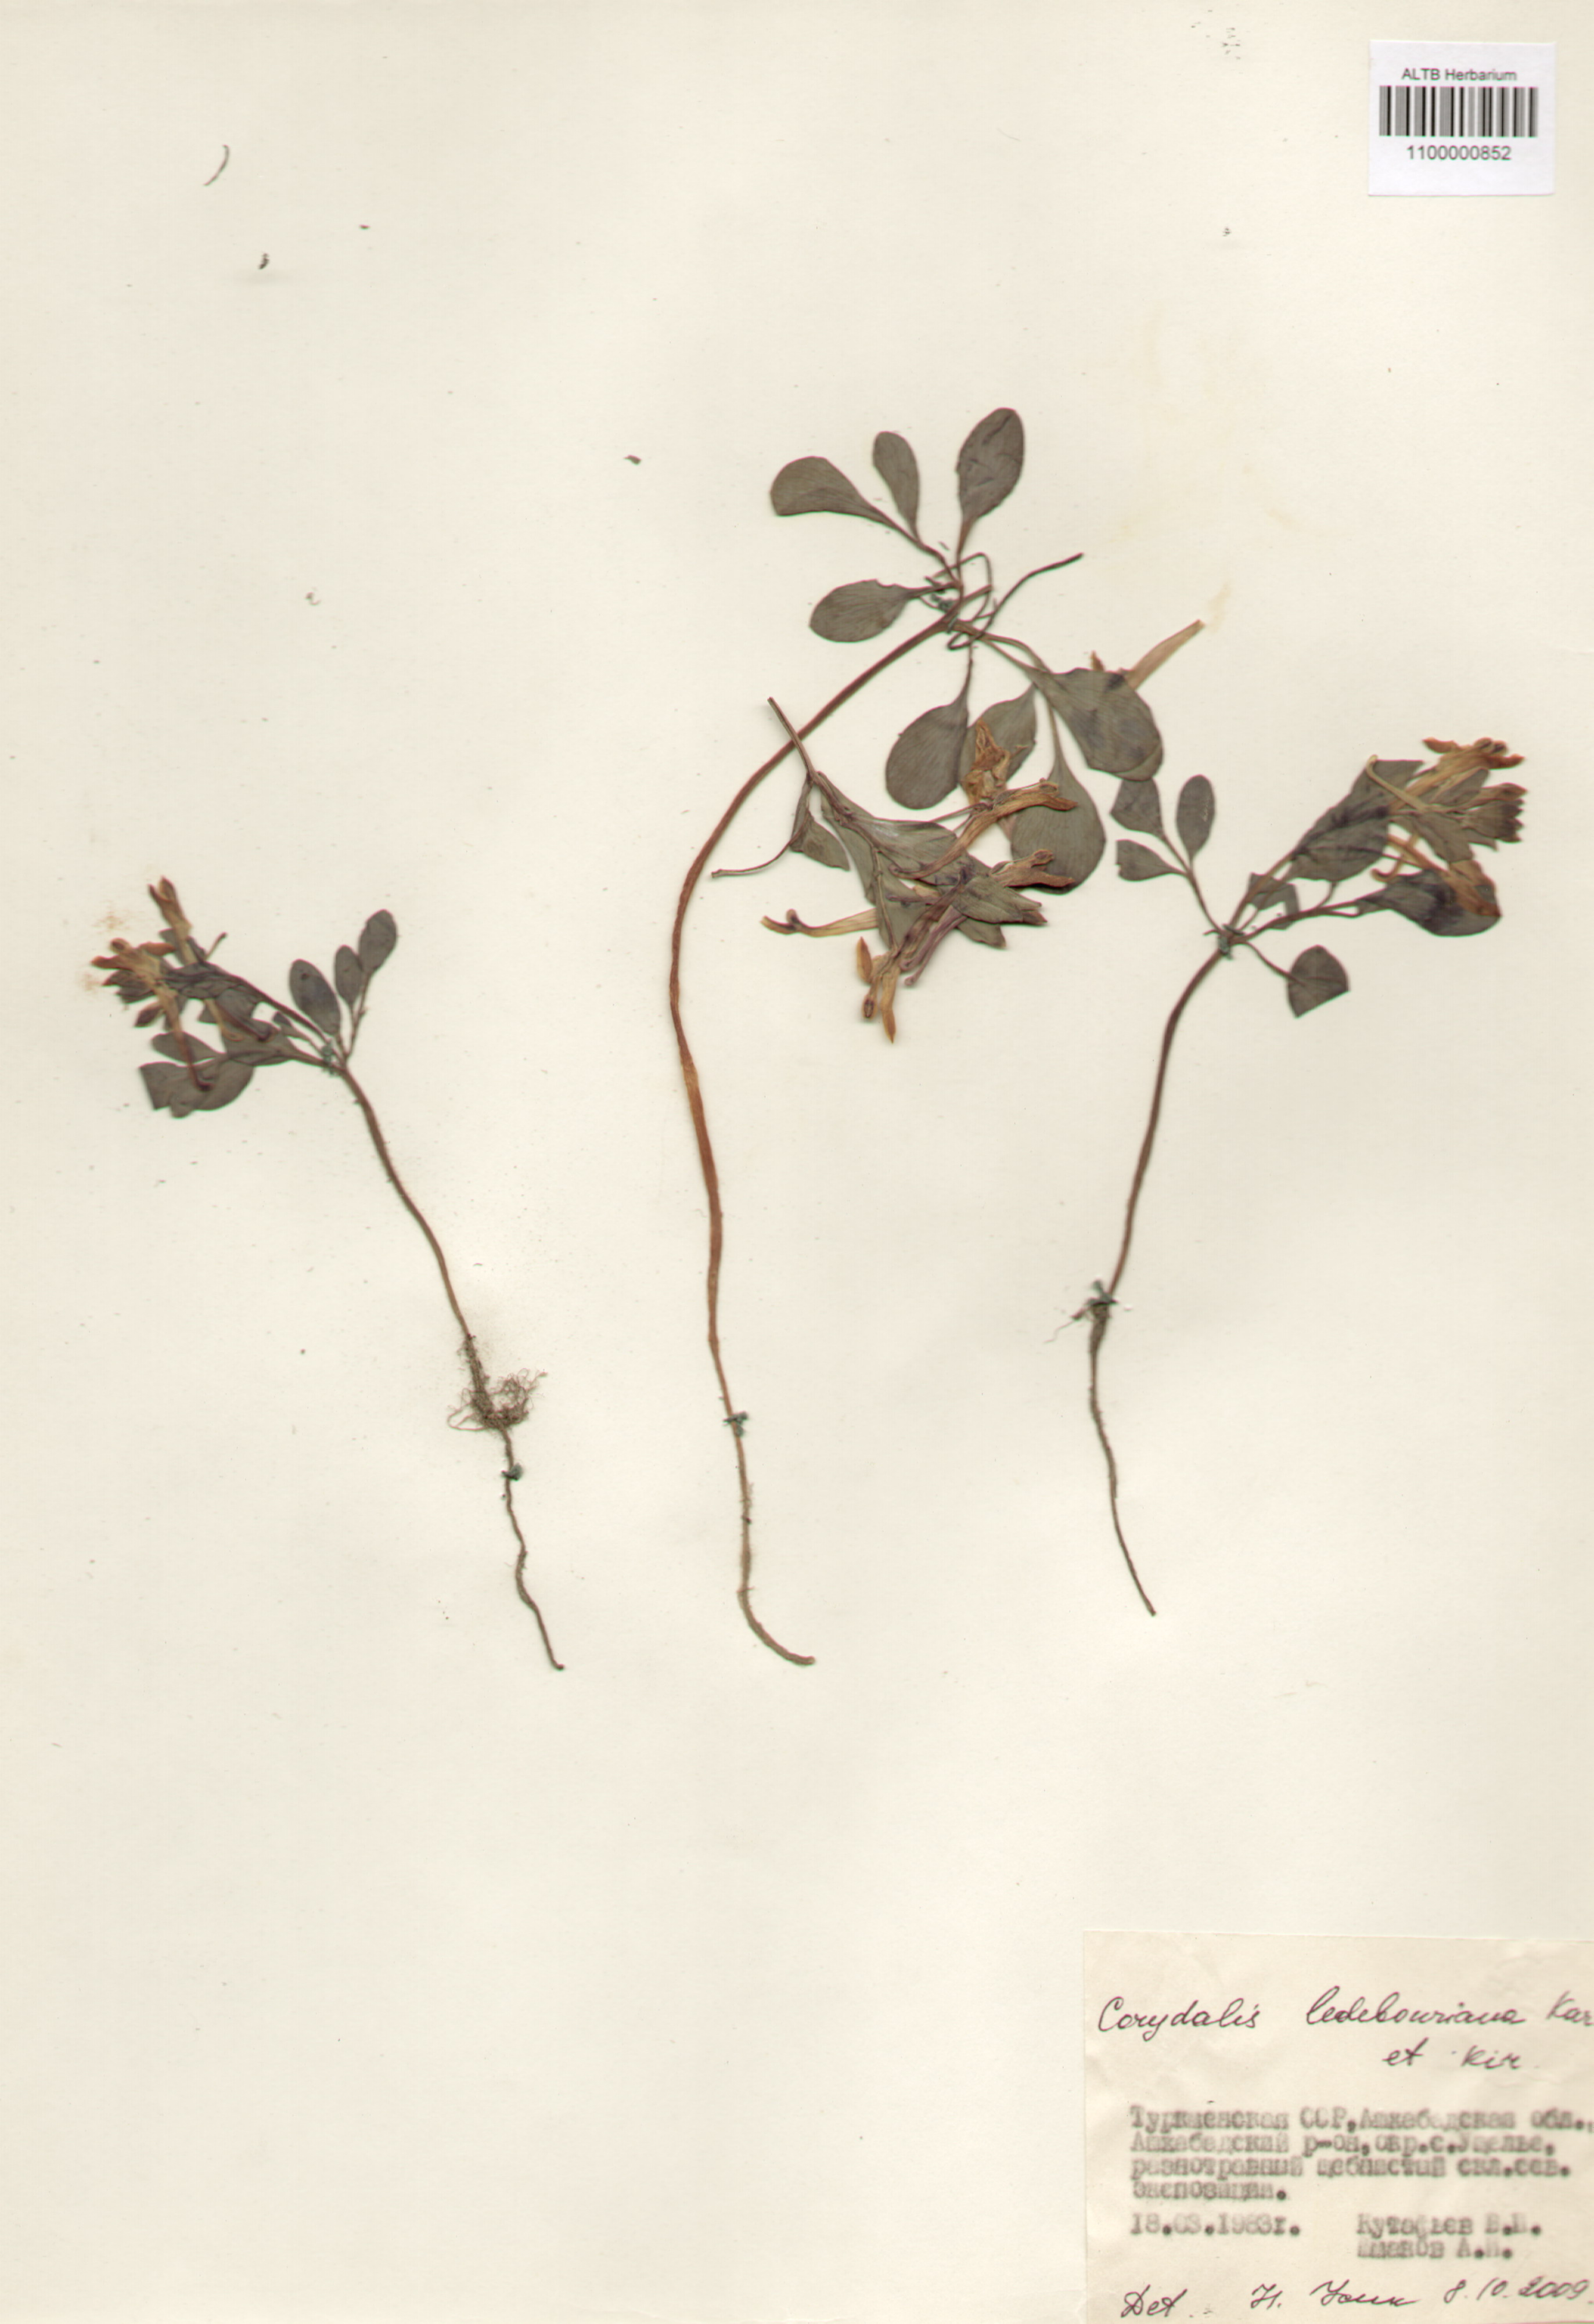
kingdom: Plantae
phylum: Tracheophyta
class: Magnoliopsida
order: Ranunculales
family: Papaveraceae
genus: Corydalis
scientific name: Corydalis ledebouriana
